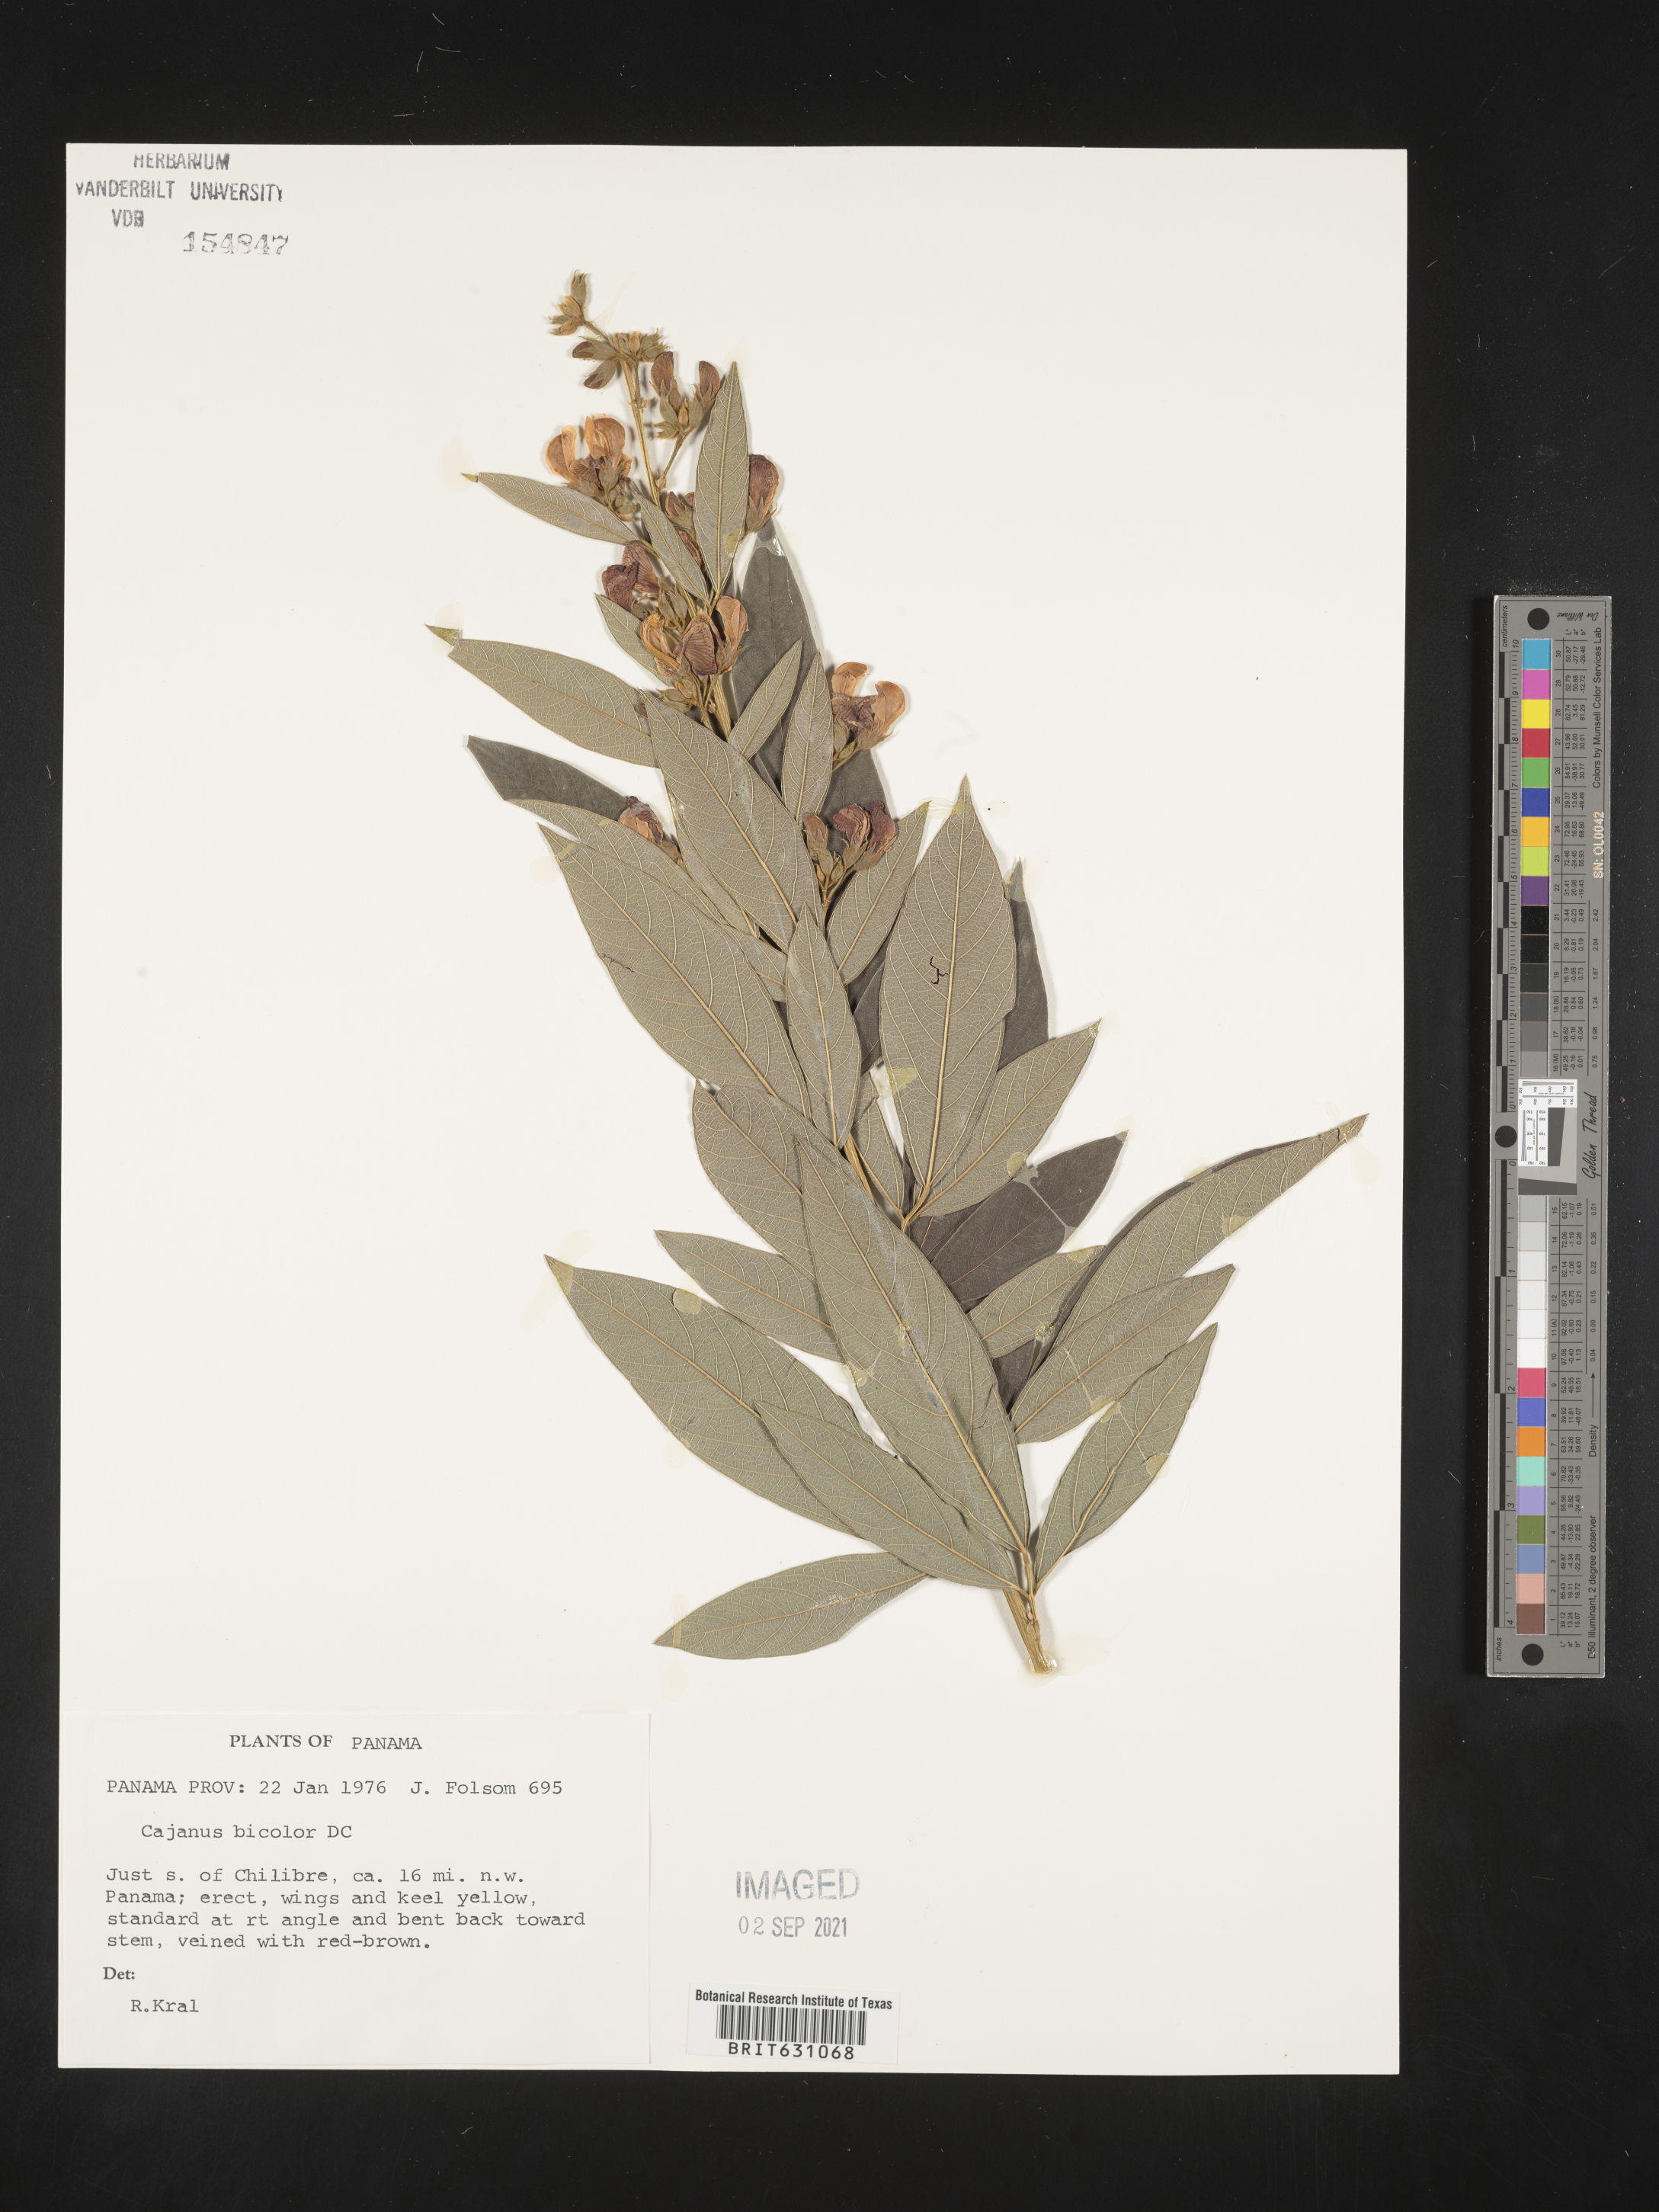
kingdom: Plantae
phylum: Tracheophyta
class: Magnoliopsida
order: Fabales
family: Fabaceae
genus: Cajanus
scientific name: Cajanus
